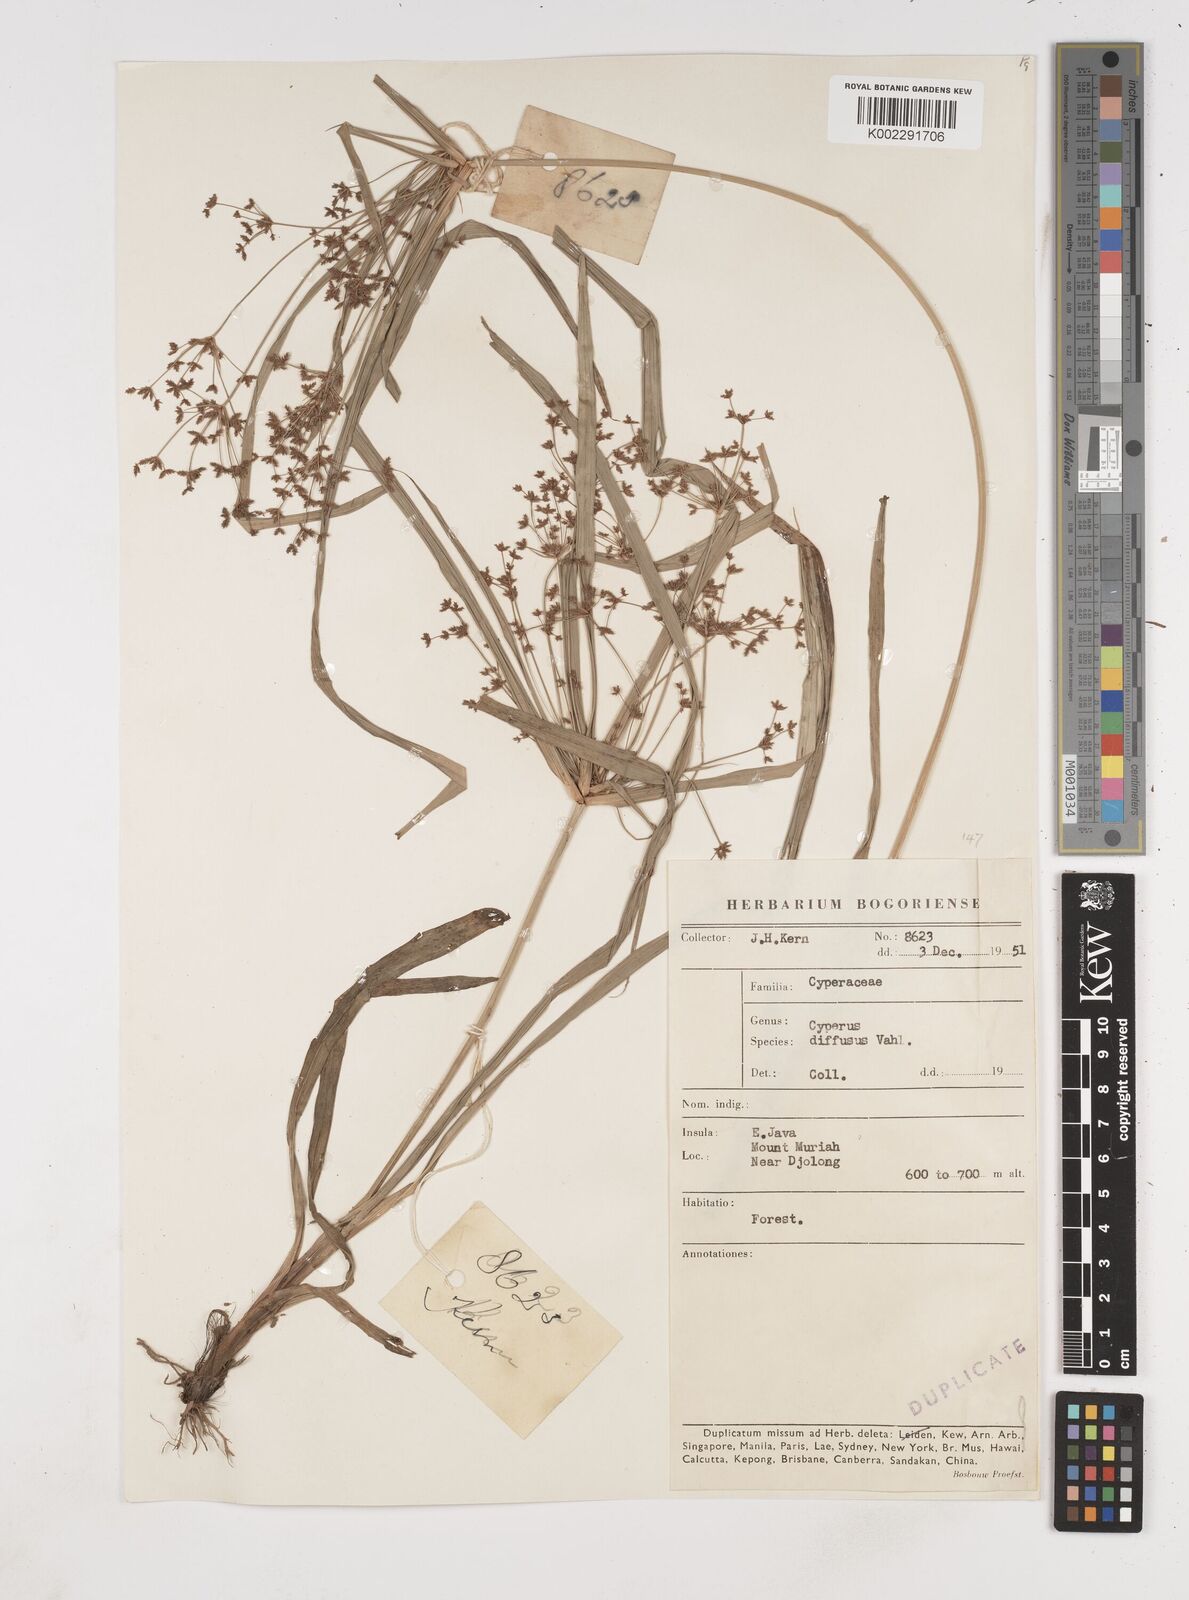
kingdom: Plantae
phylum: Tracheophyta
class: Liliopsida
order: Poales
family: Cyperaceae
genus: Cyperus
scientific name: Cyperus diffusus
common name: Dwarf umbrella grass
